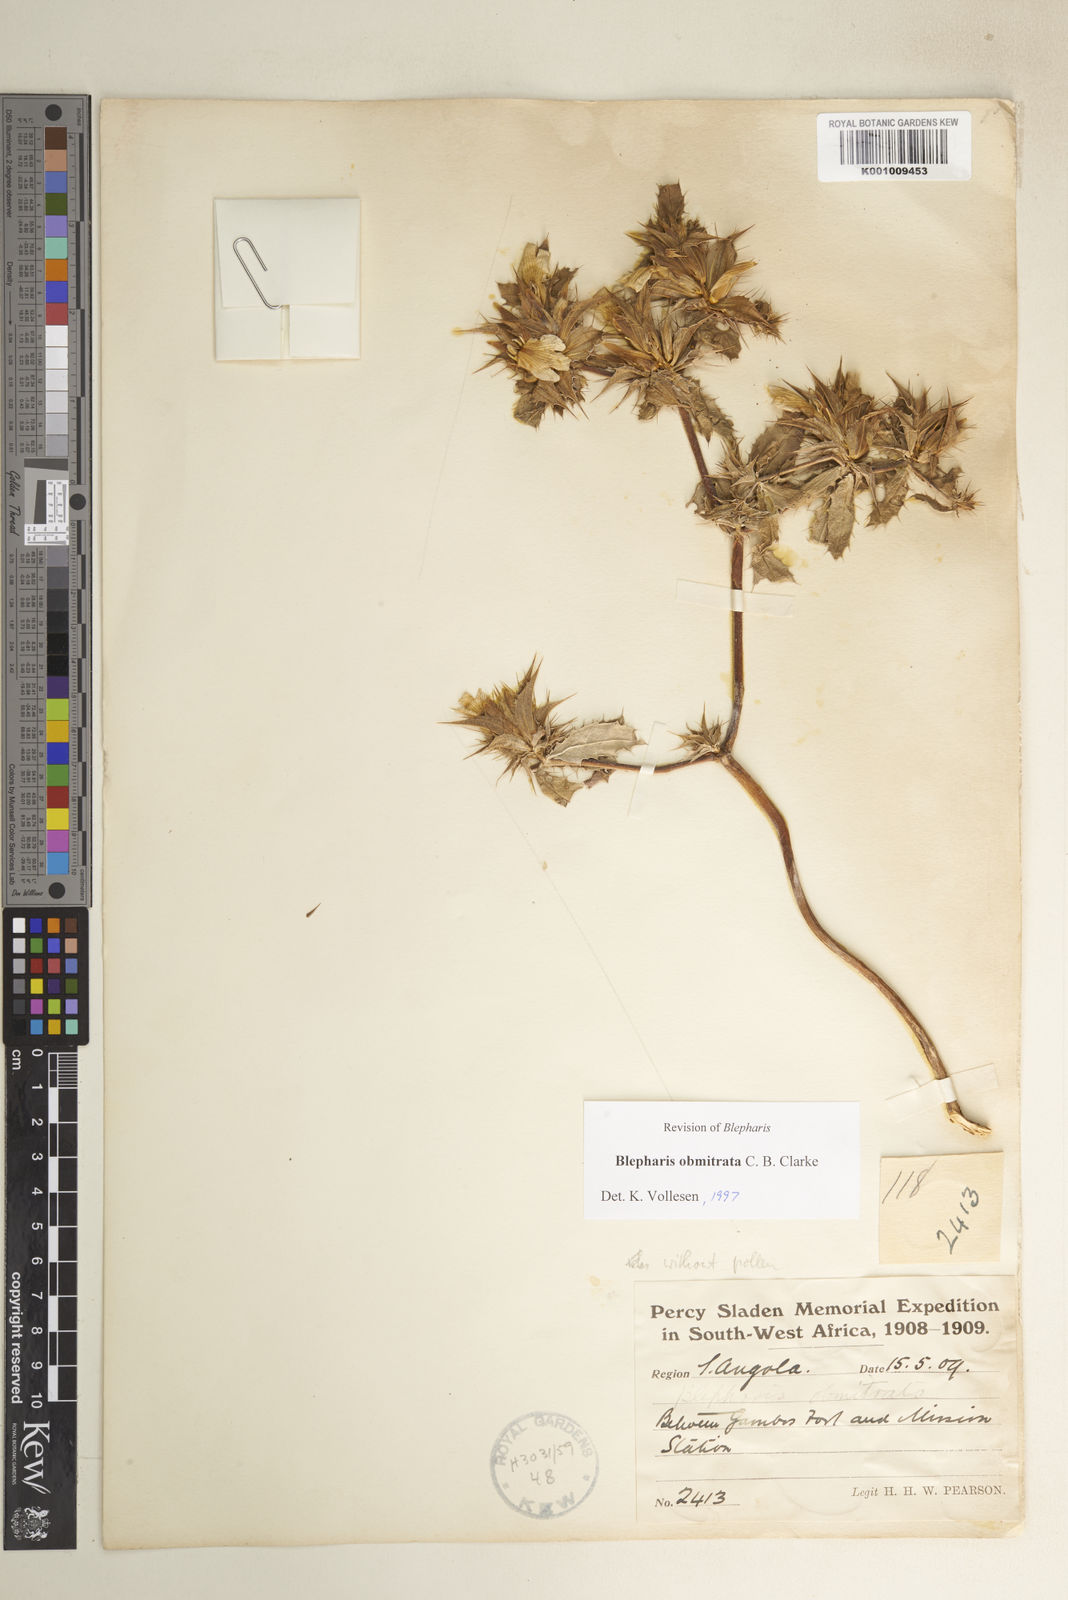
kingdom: Plantae
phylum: Tracheophyta
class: Magnoliopsida
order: Lamiales
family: Acanthaceae
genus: Blepharis
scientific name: Blepharis obmitrata
